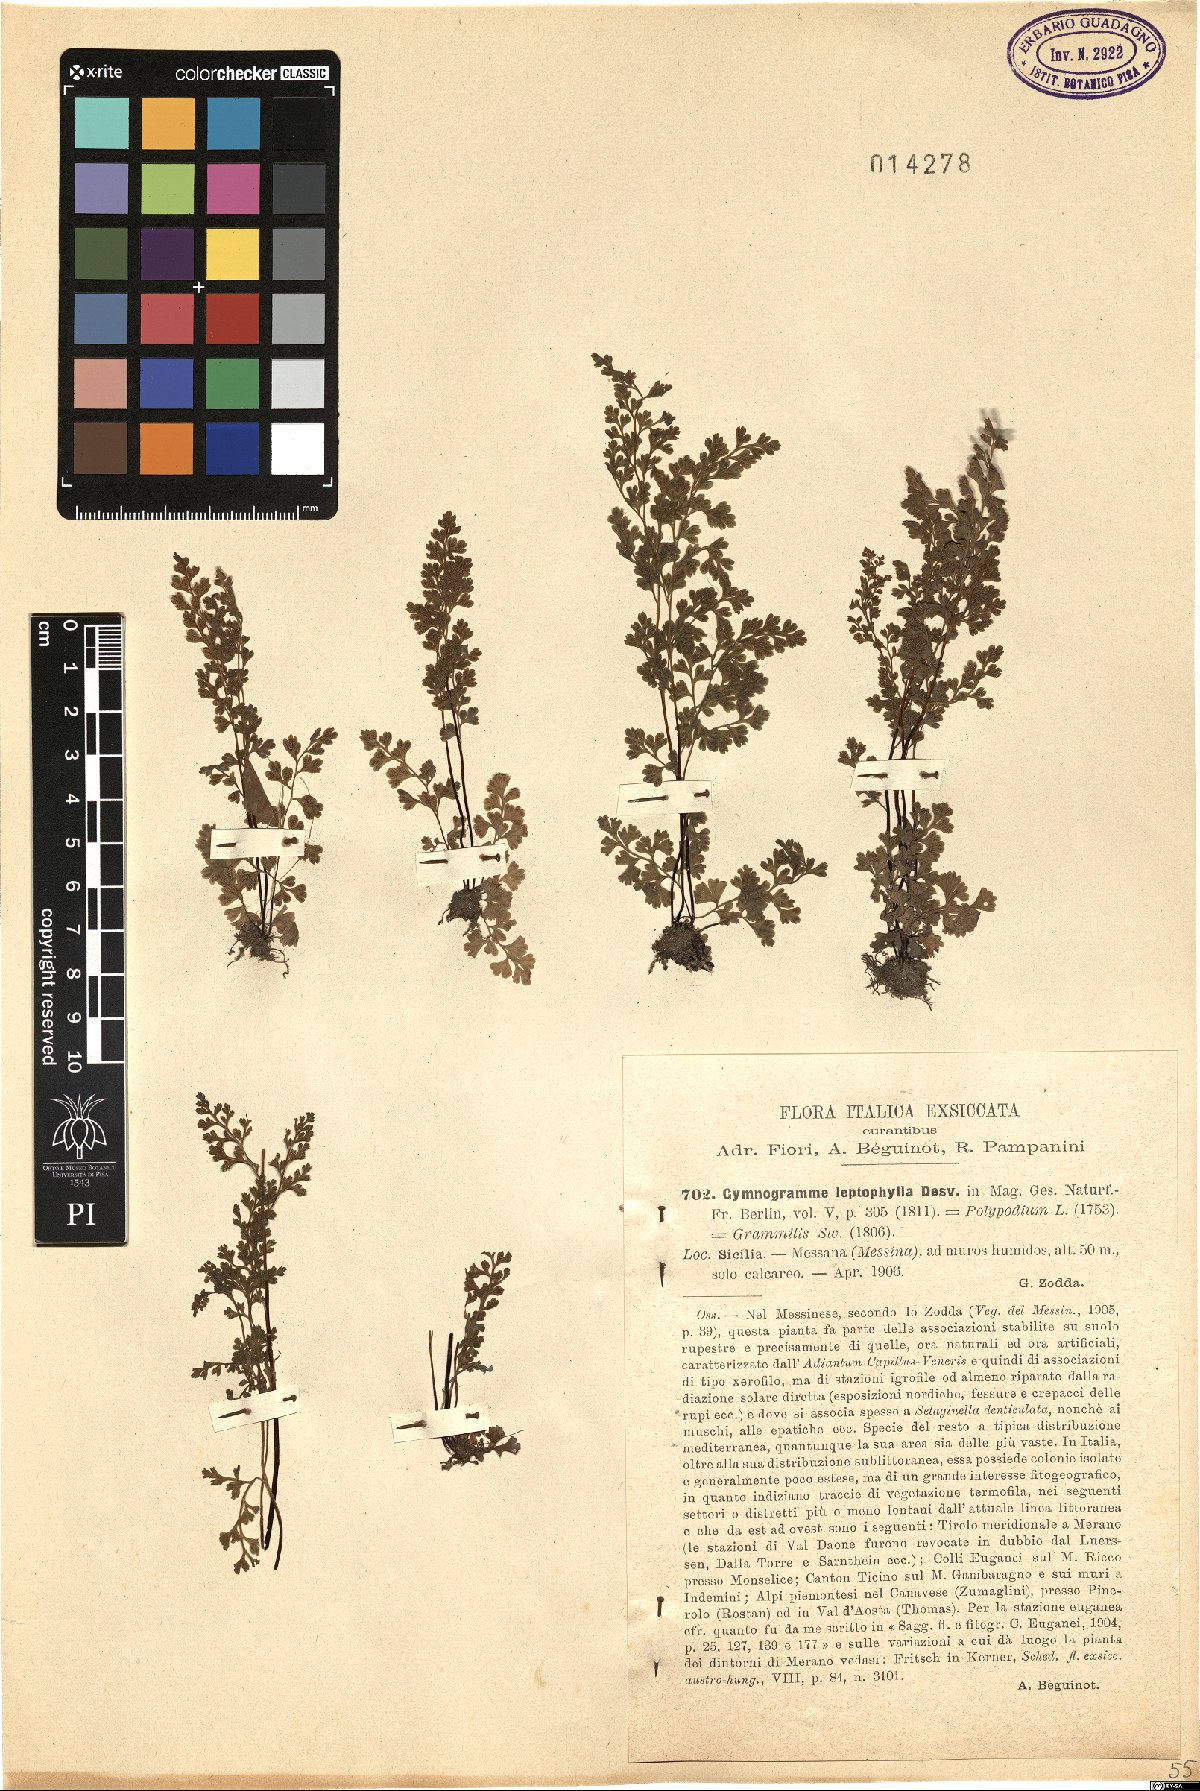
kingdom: Plantae
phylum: Tracheophyta
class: Polypodiopsida
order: Polypodiales
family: Pteridaceae
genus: Anogramma
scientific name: Anogramma leptophylla
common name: Jersey fern
